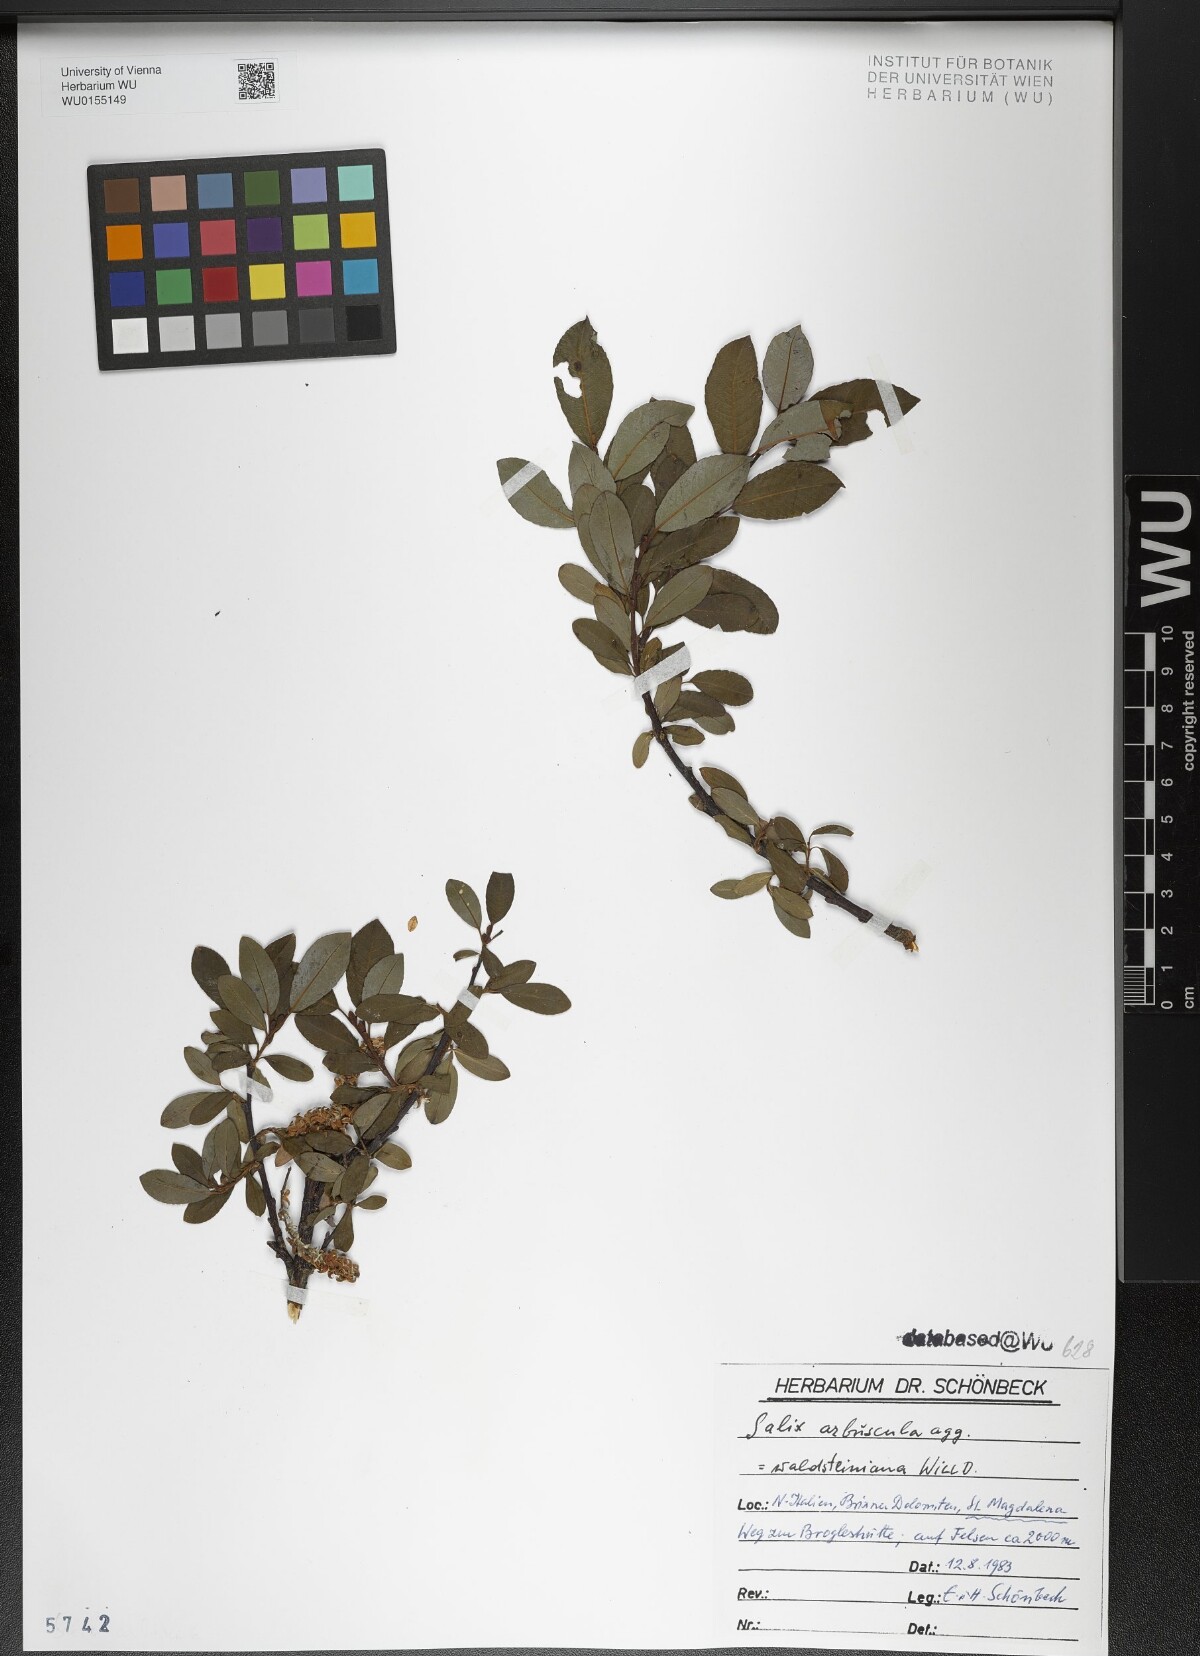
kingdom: Plantae
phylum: Tracheophyta
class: Magnoliopsida
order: Malpighiales
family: Salicaceae
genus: Salix
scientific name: Salix waldsteiniana
